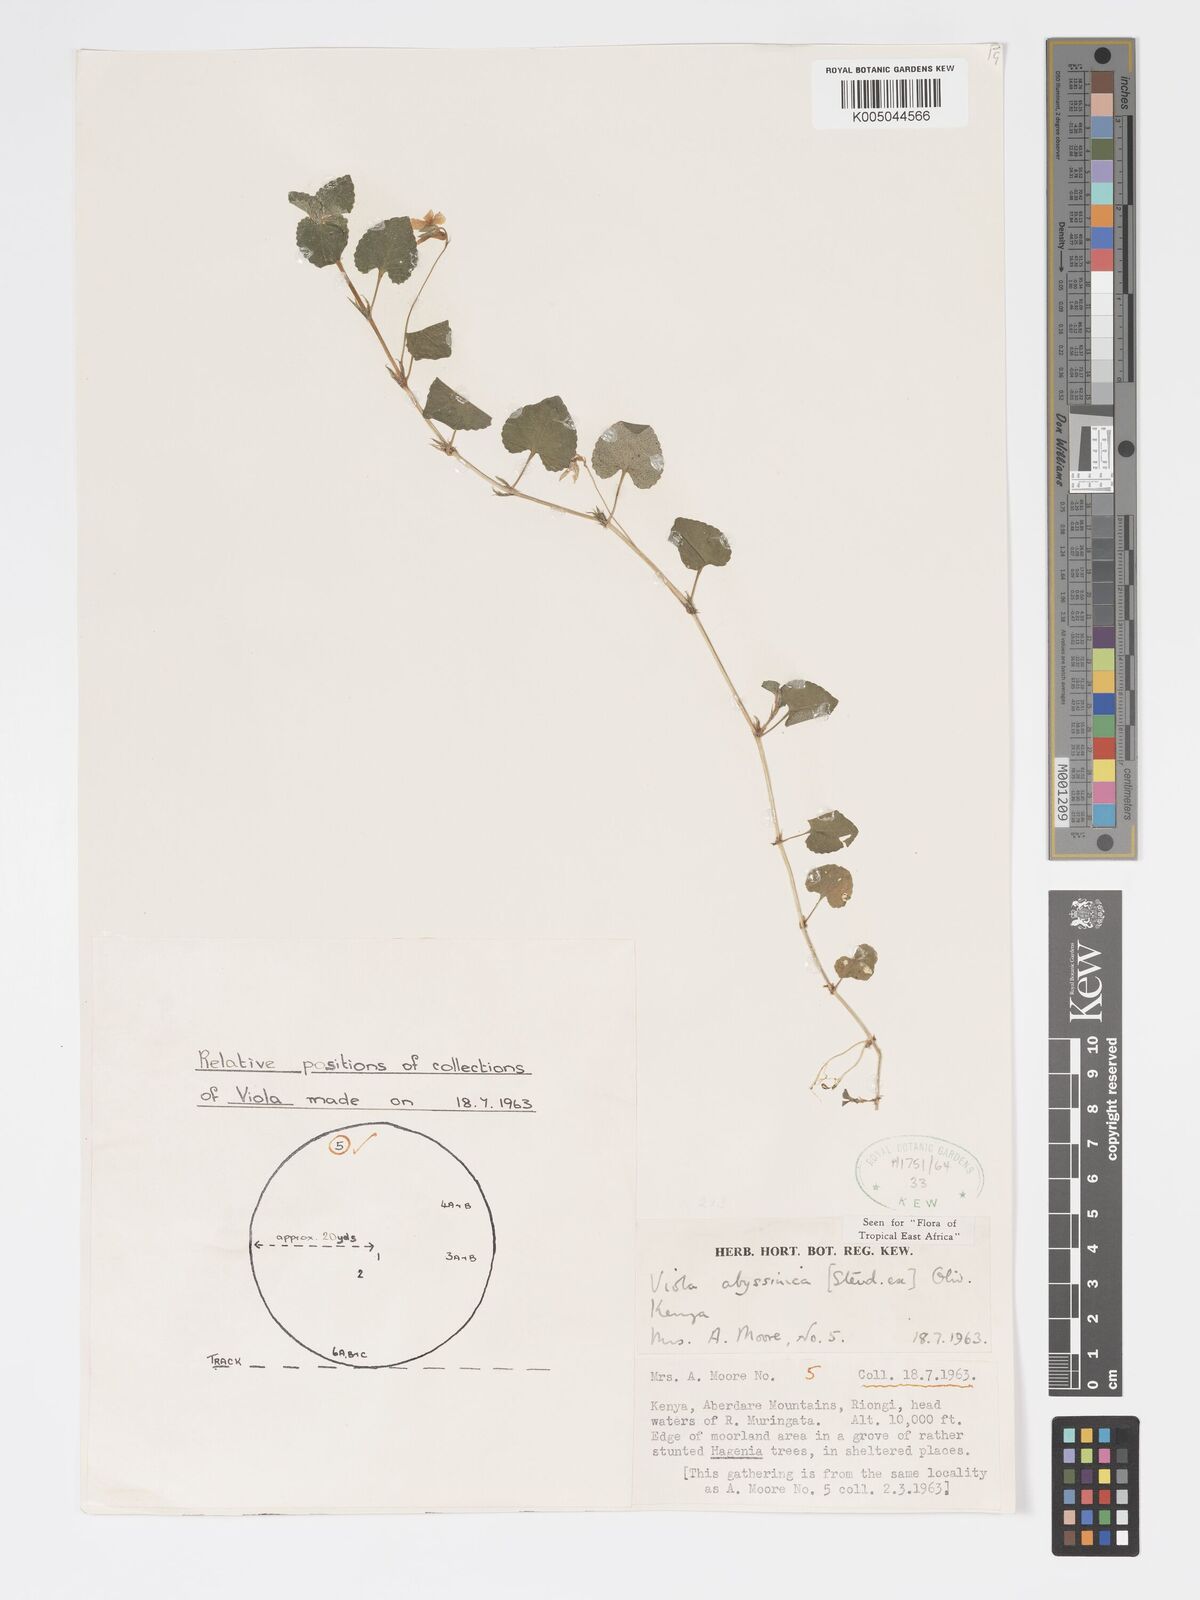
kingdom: Plantae
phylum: Tracheophyta
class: Magnoliopsida
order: Malpighiales
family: Violaceae
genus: Viola
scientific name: Viola abyssinica
